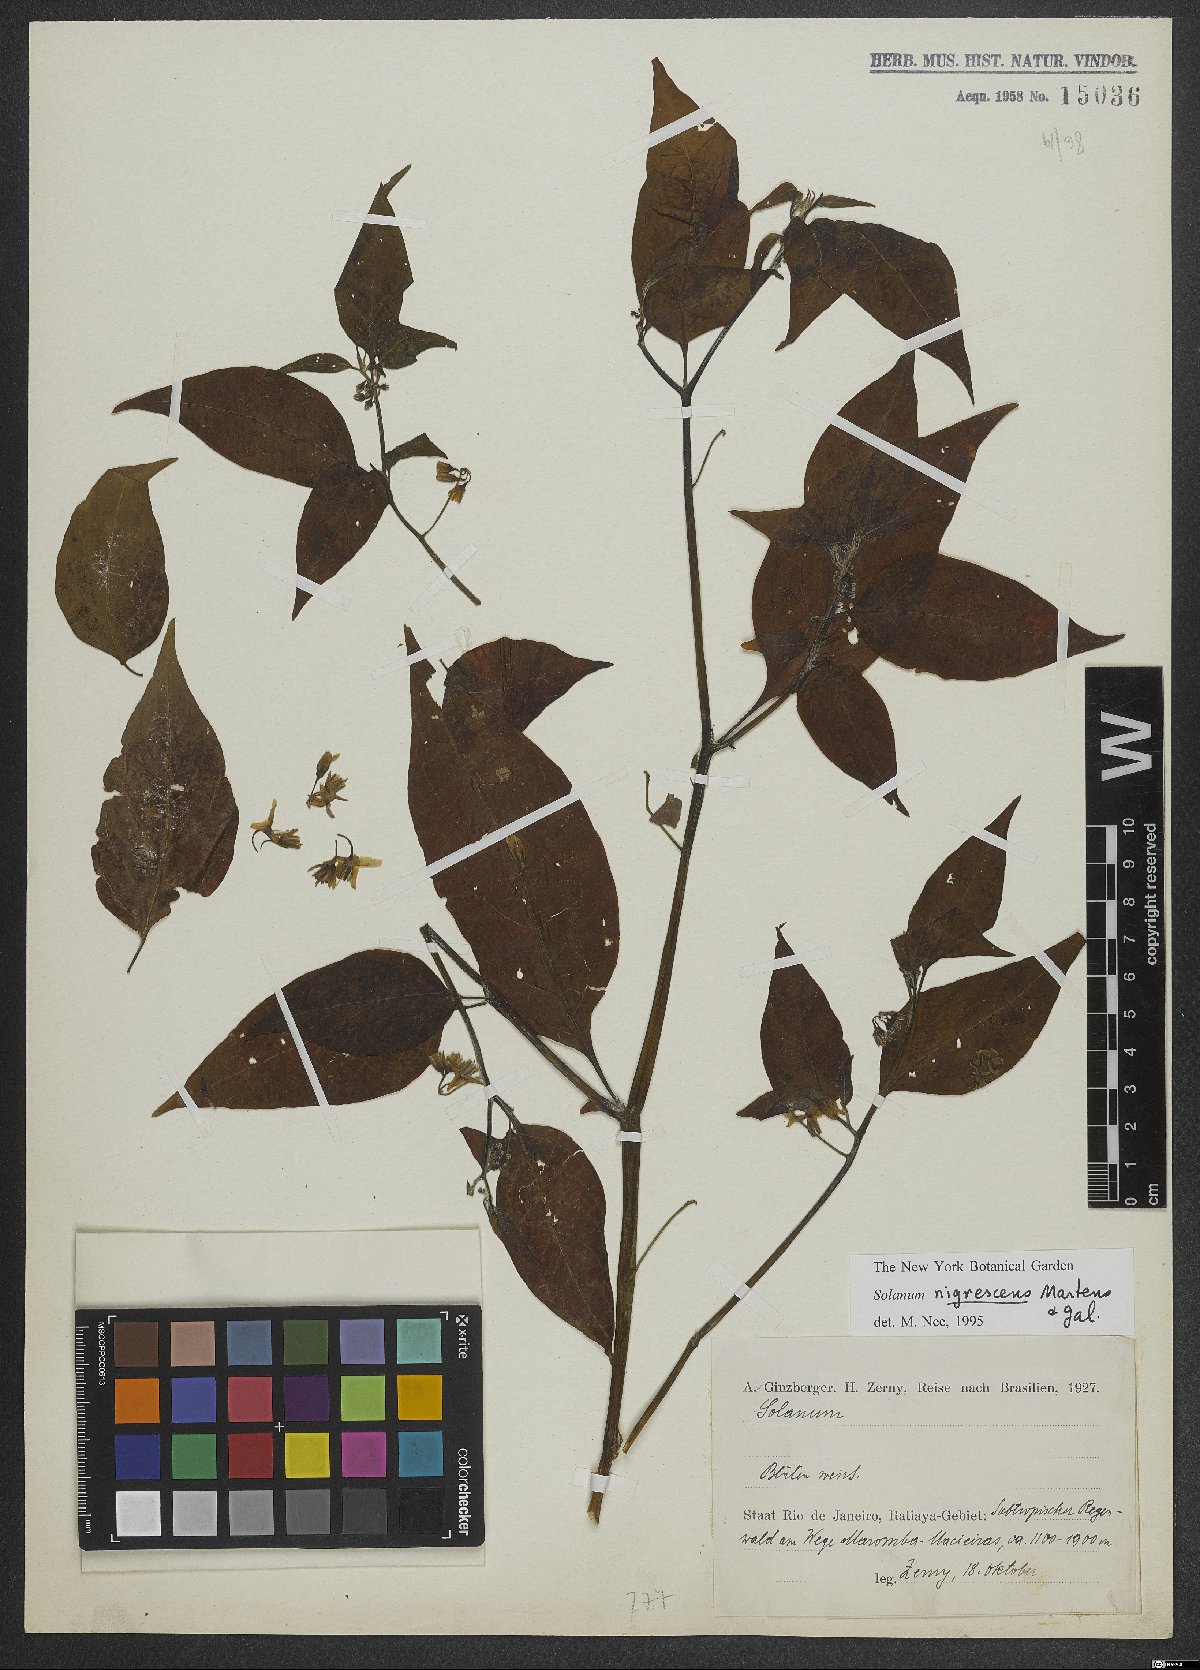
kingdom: Plantae
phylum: Tracheophyta
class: Magnoliopsida
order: Solanales
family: Solanaceae
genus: Solanum
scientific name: Solanum enantiophyllanthum
